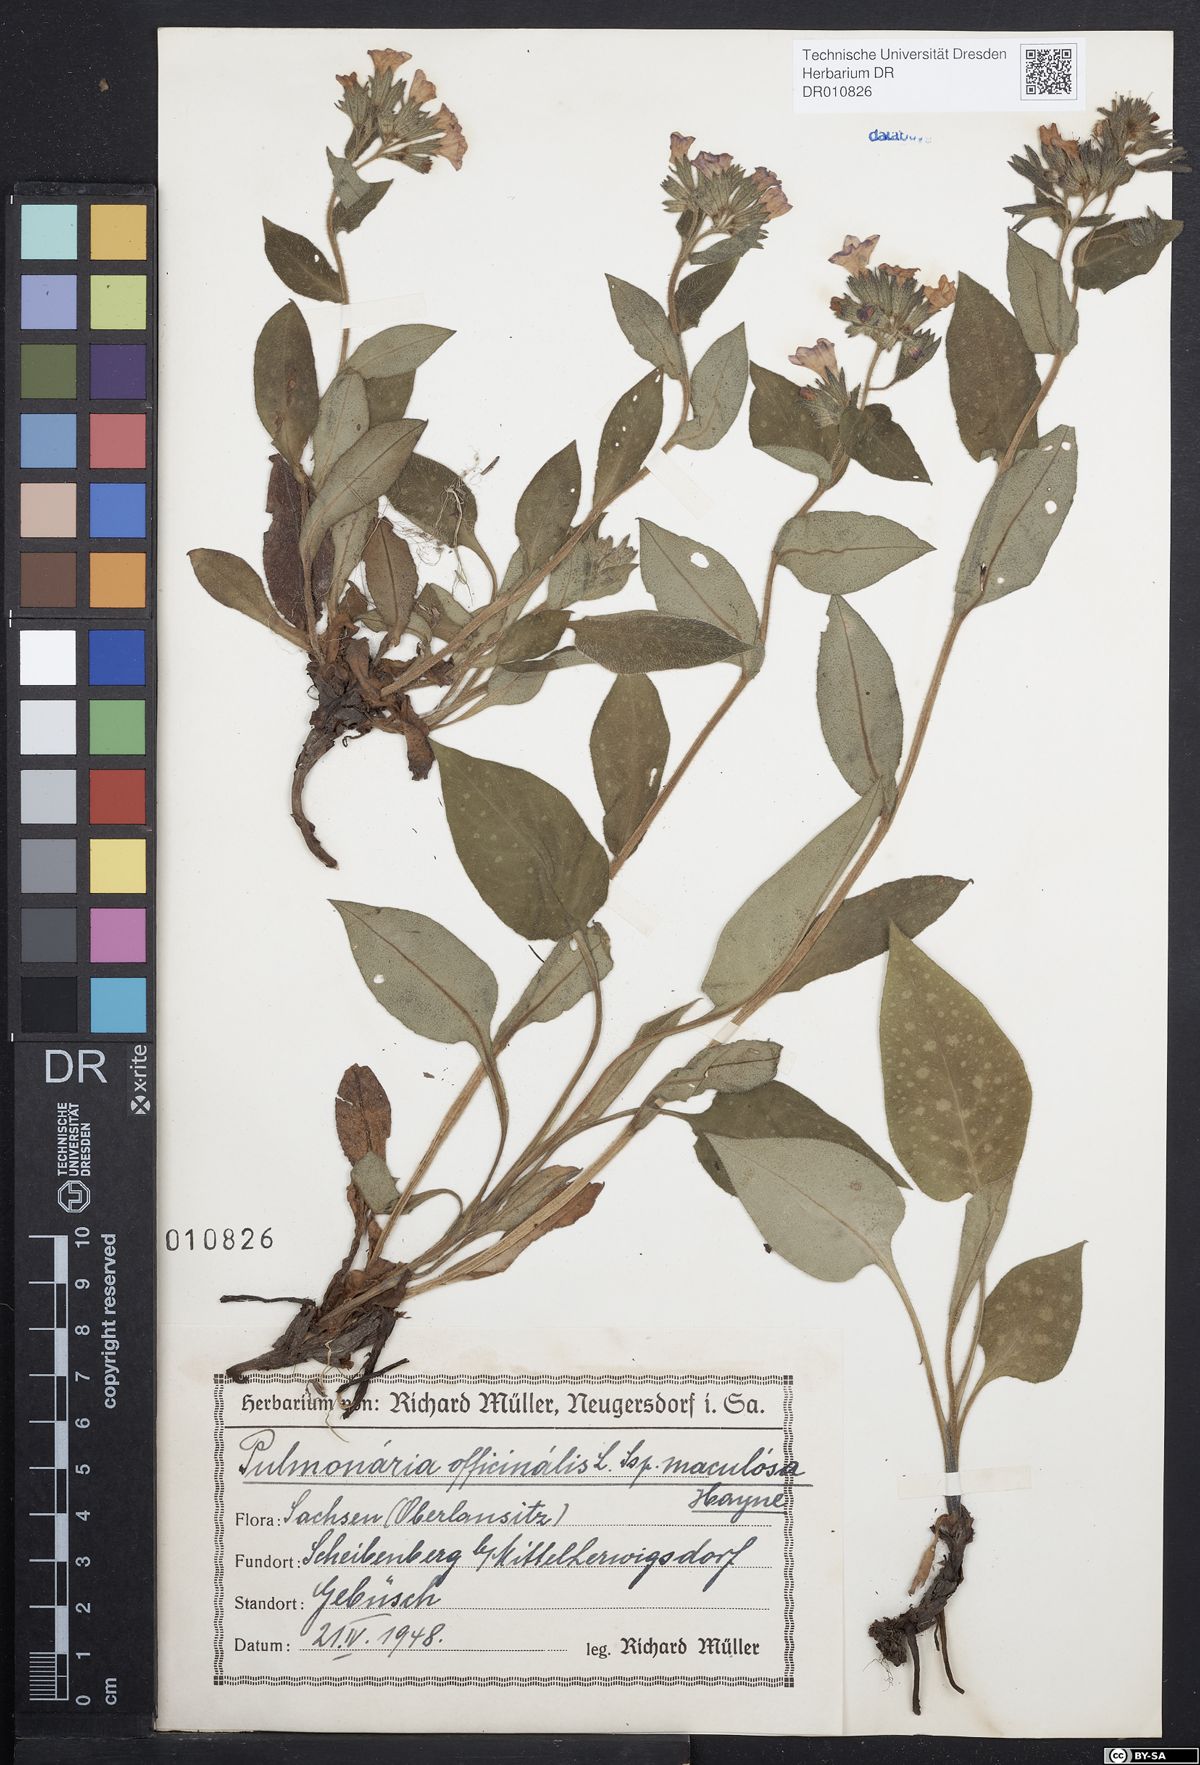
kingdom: Plantae
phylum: Tracheophyta
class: Magnoliopsida
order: Boraginales
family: Boraginaceae
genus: Pulmonaria
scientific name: Pulmonaria officinalis
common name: Lungwort
